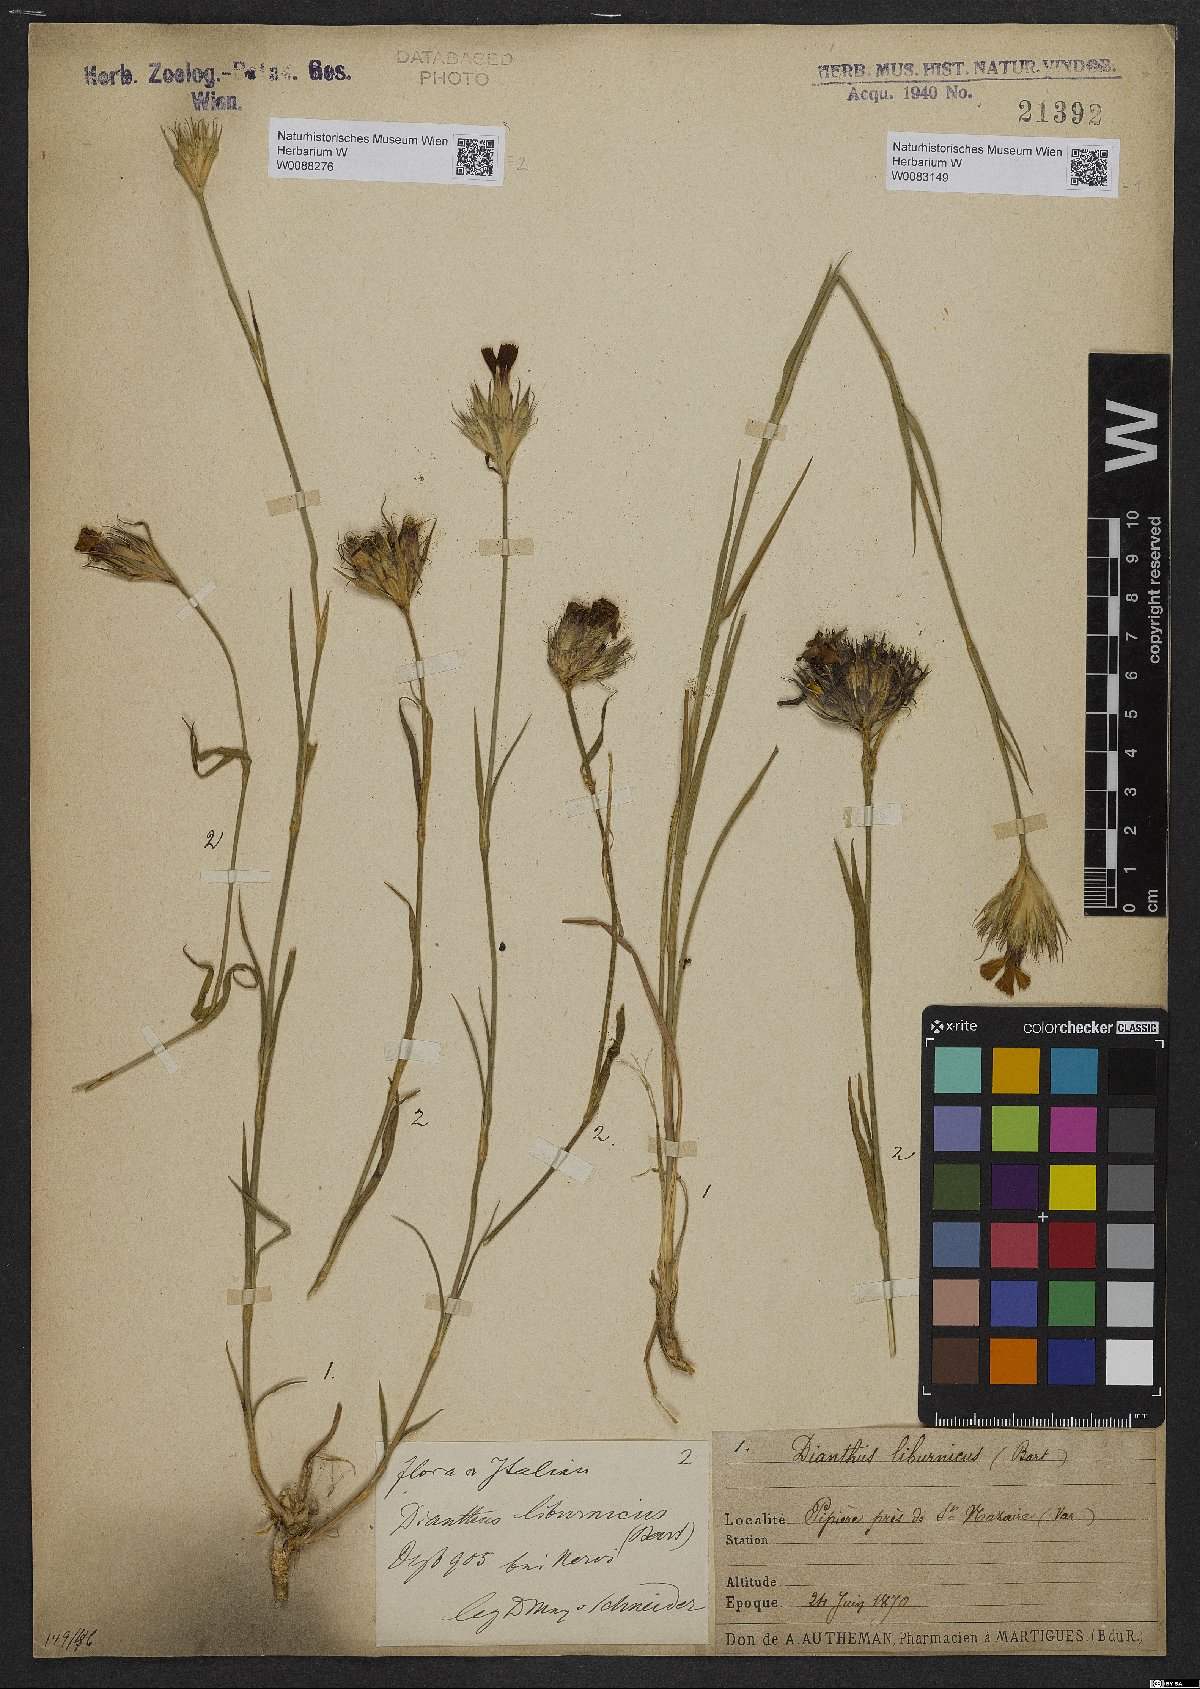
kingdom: Plantae
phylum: Tracheophyta
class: Magnoliopsida
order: Caryophyllales
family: Caryophyllaceae
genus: Dianthus
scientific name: Dianthus balbisii
